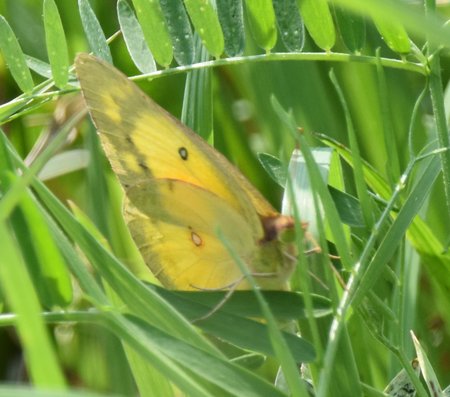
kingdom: Animalia
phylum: Arthropoda
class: Insecta
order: Lepidoptera
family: Pieridae
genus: Colias
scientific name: Colias eurytheme
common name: Orange Sulphur
